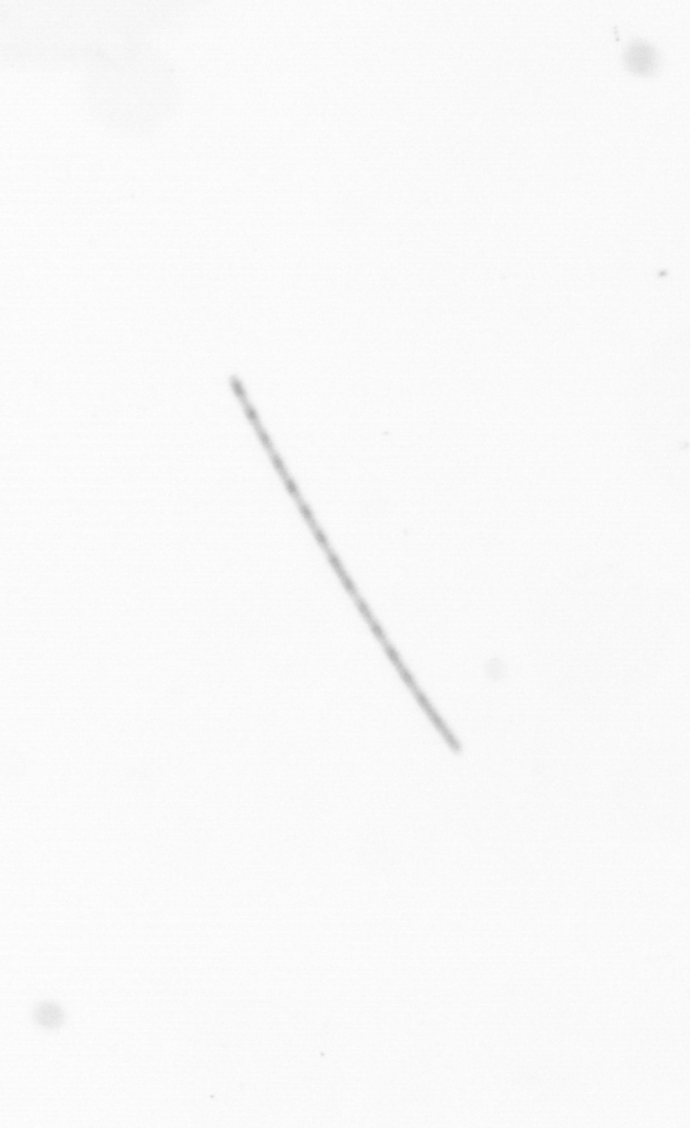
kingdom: Chromista
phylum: Ochrophyta
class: Bacillariophyceae
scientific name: Bacillariophyceae
